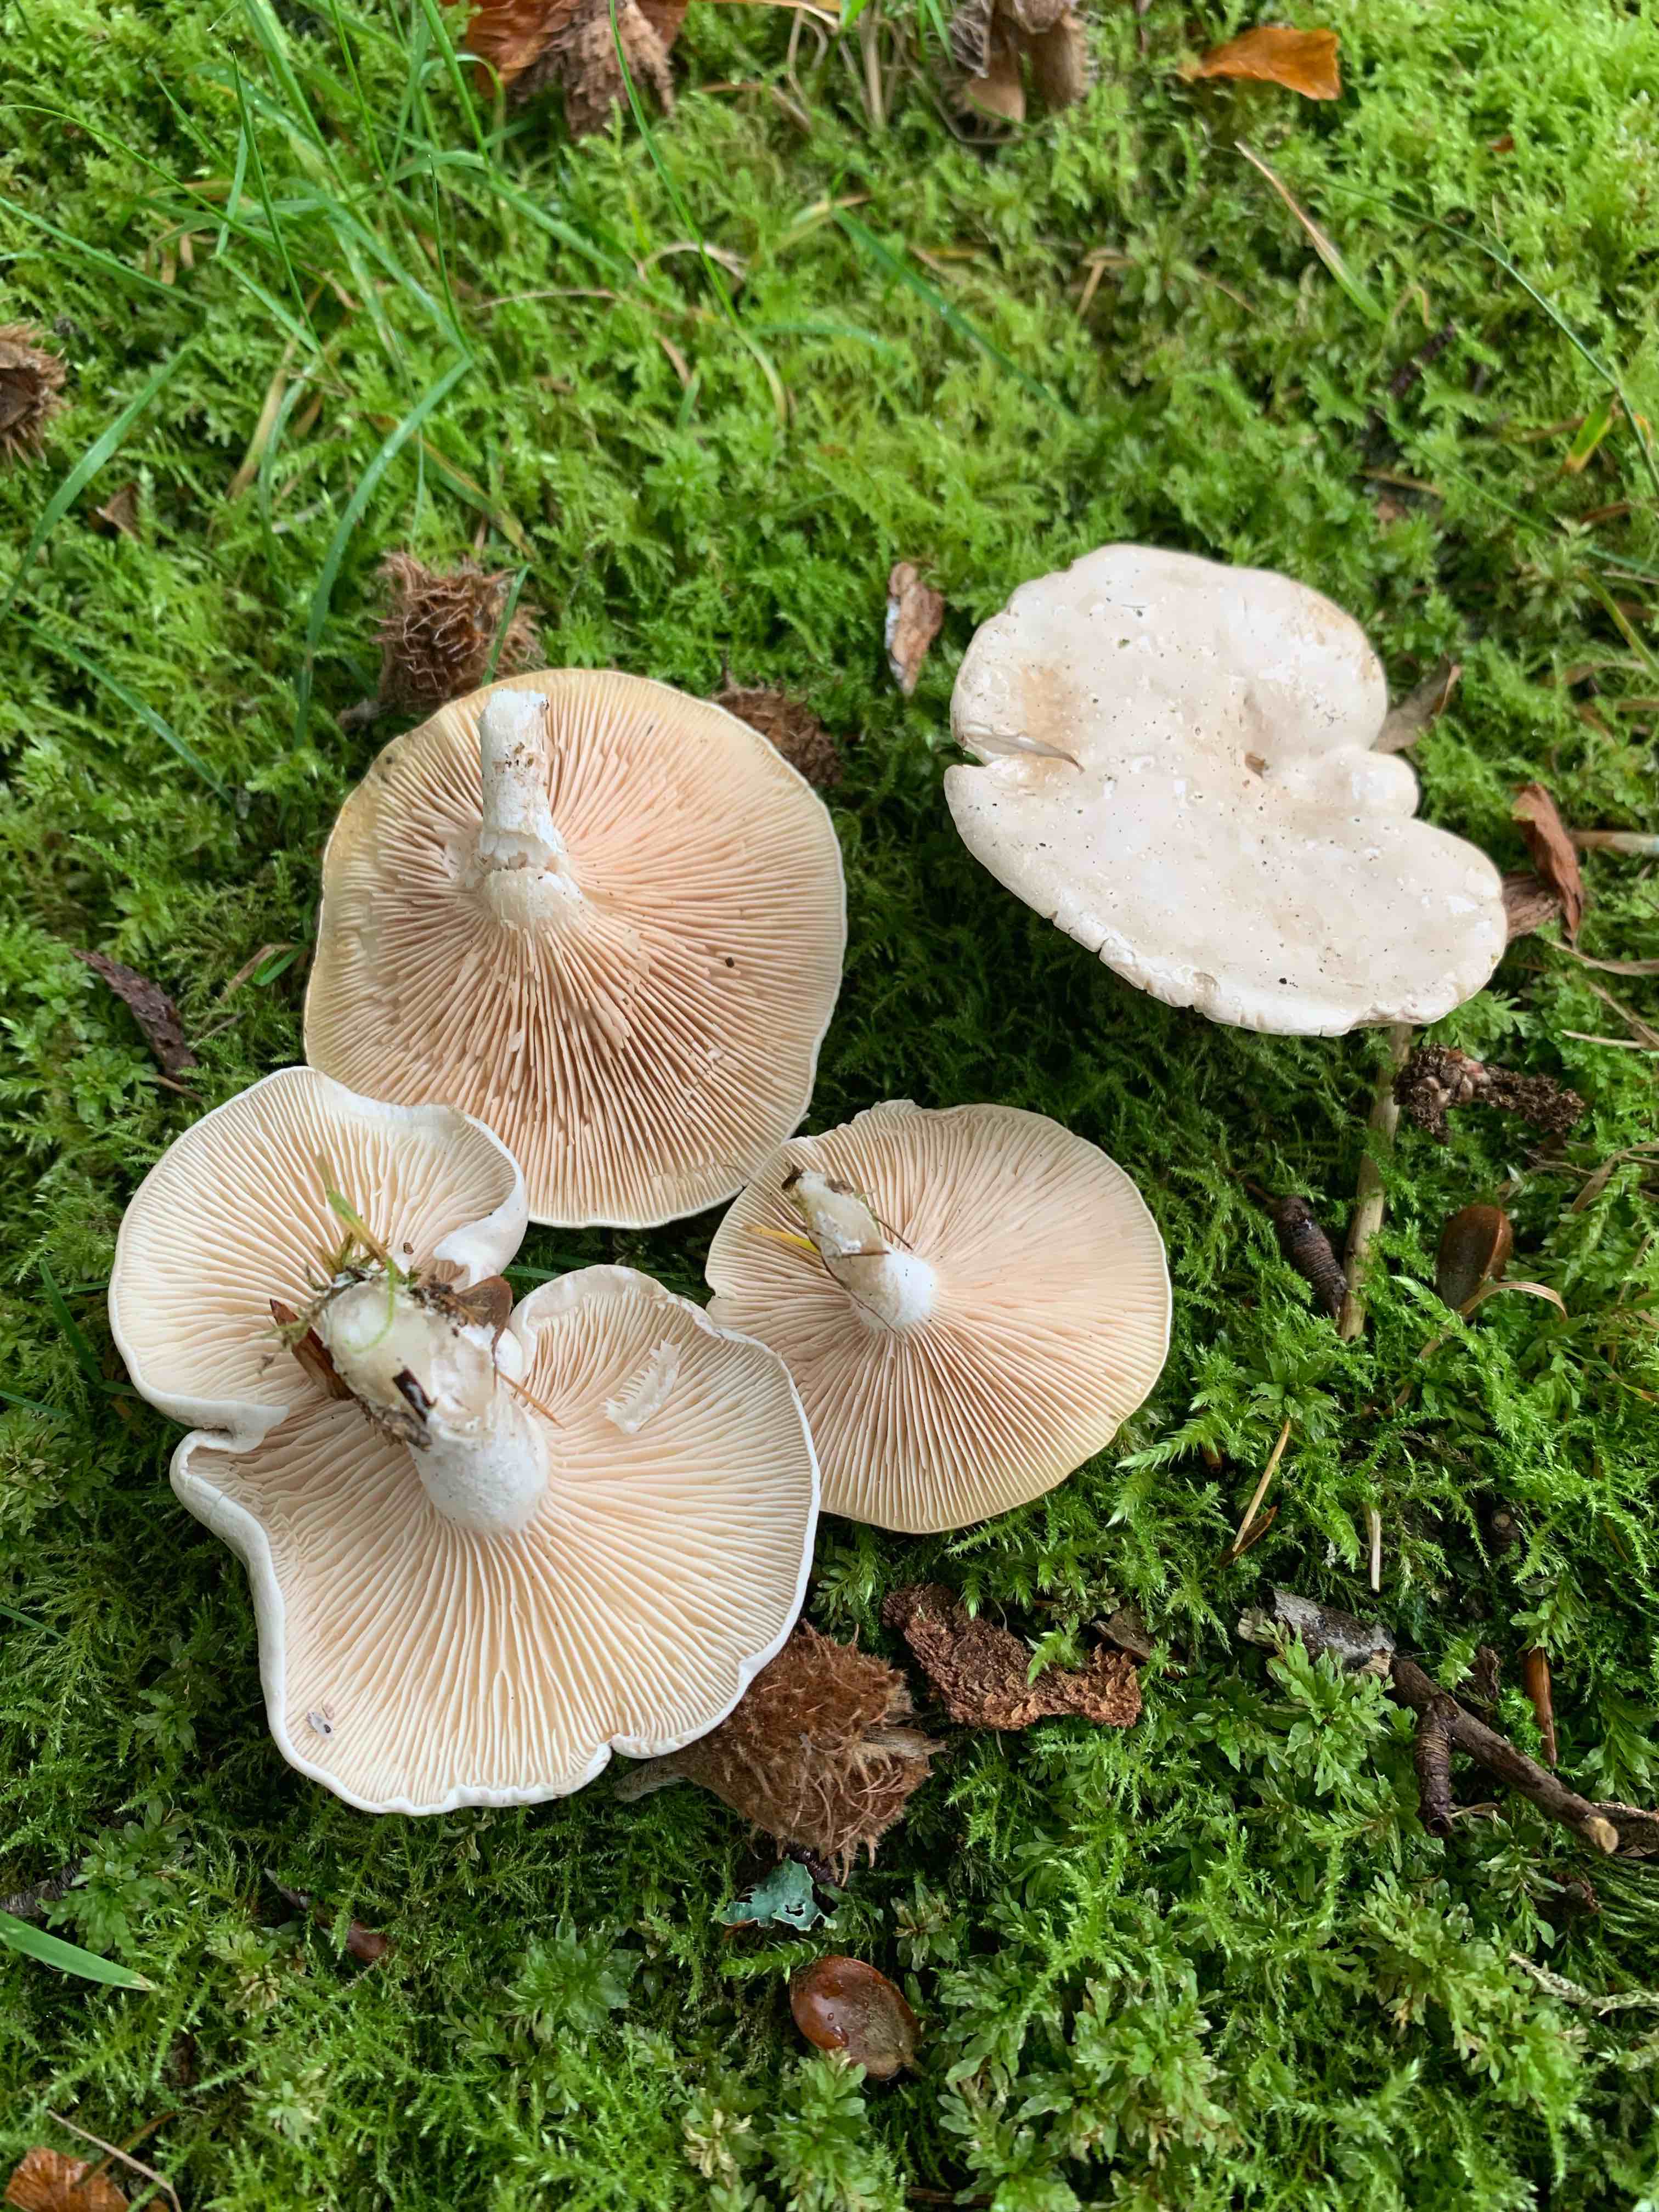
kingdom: Fungi
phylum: Basidiomycota
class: Agaricomycetes
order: Agaricales
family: Entolomataceae
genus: Clitopilus
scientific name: Clitopilus prunulus
